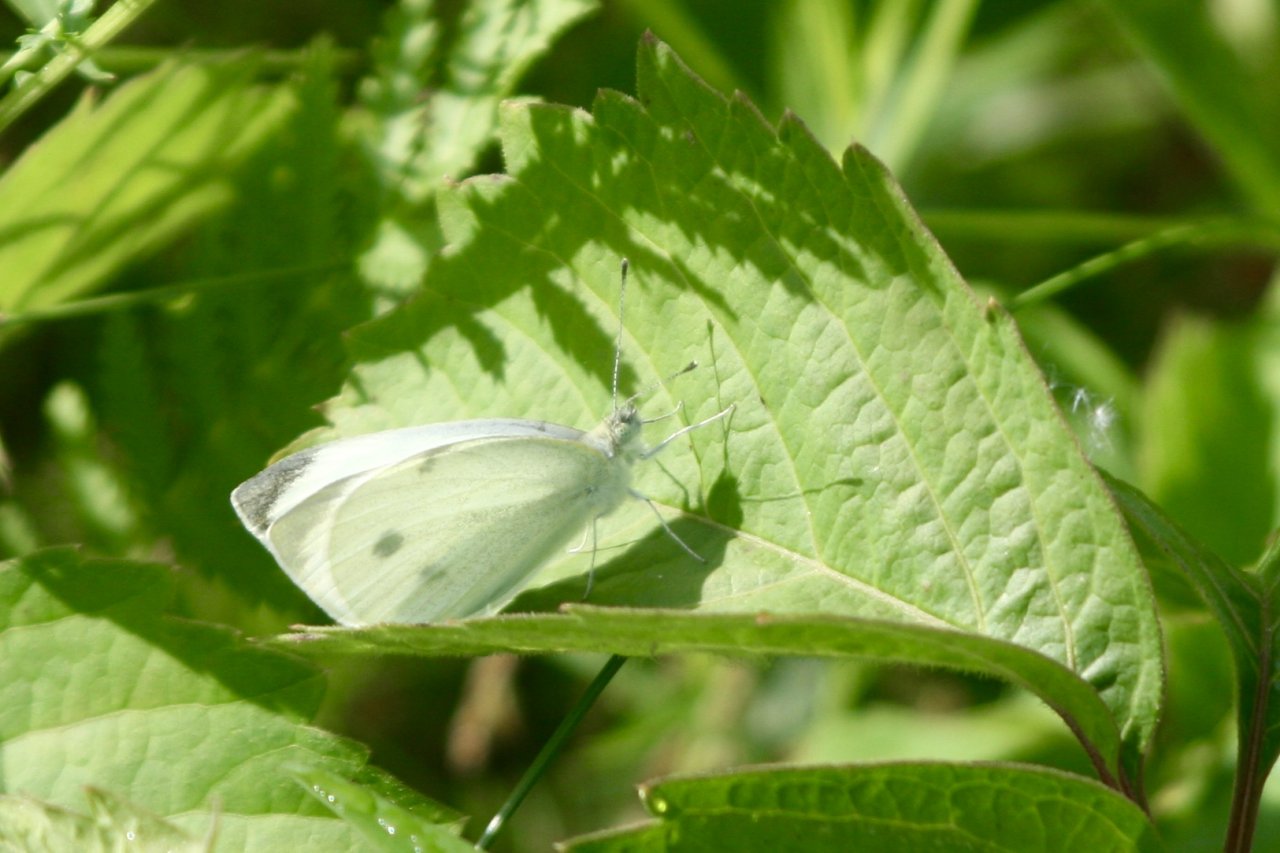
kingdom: Animalia
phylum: Arthropoda
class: Insecta
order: Lepidoptera
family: Pieridae
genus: Pieris
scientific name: Pieris rapae
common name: Cabbage White
